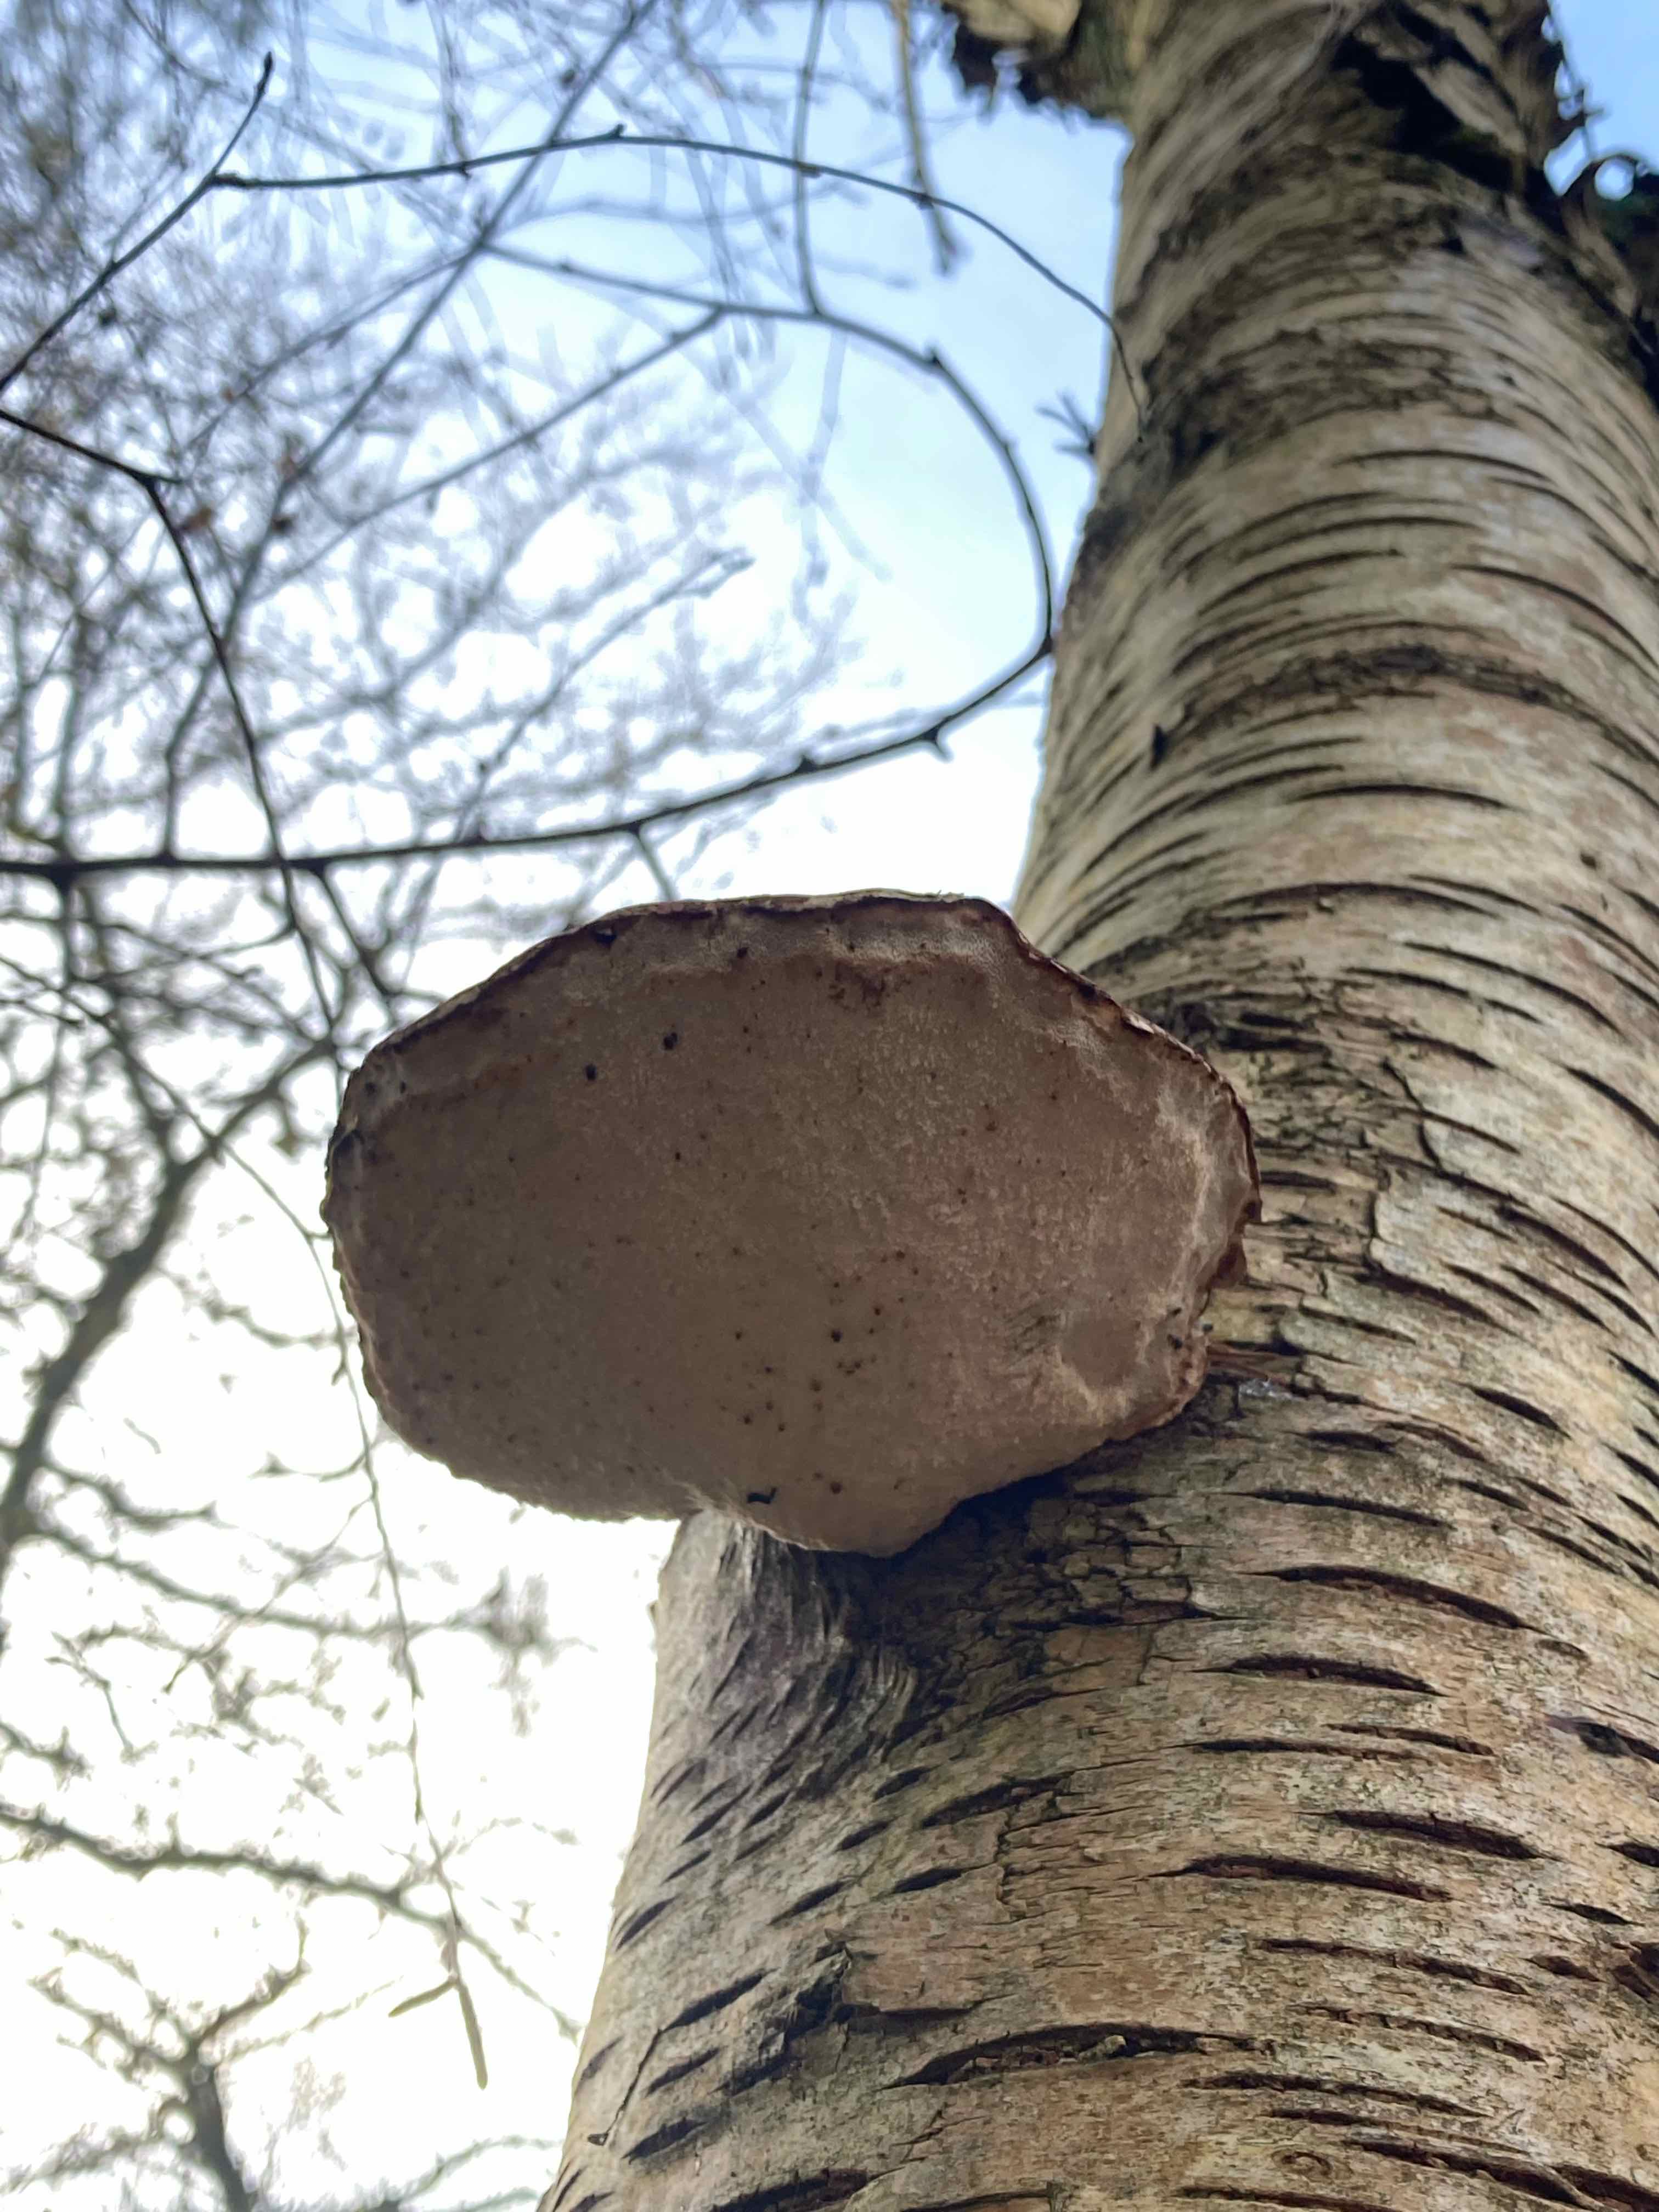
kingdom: Fungi
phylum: Basidiomycota
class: Agaricomycetes
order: Polyporales
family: Fomitopsidaceae
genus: Fomitopsis
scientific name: Fomitopsis betulina
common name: birkeporesvamp
